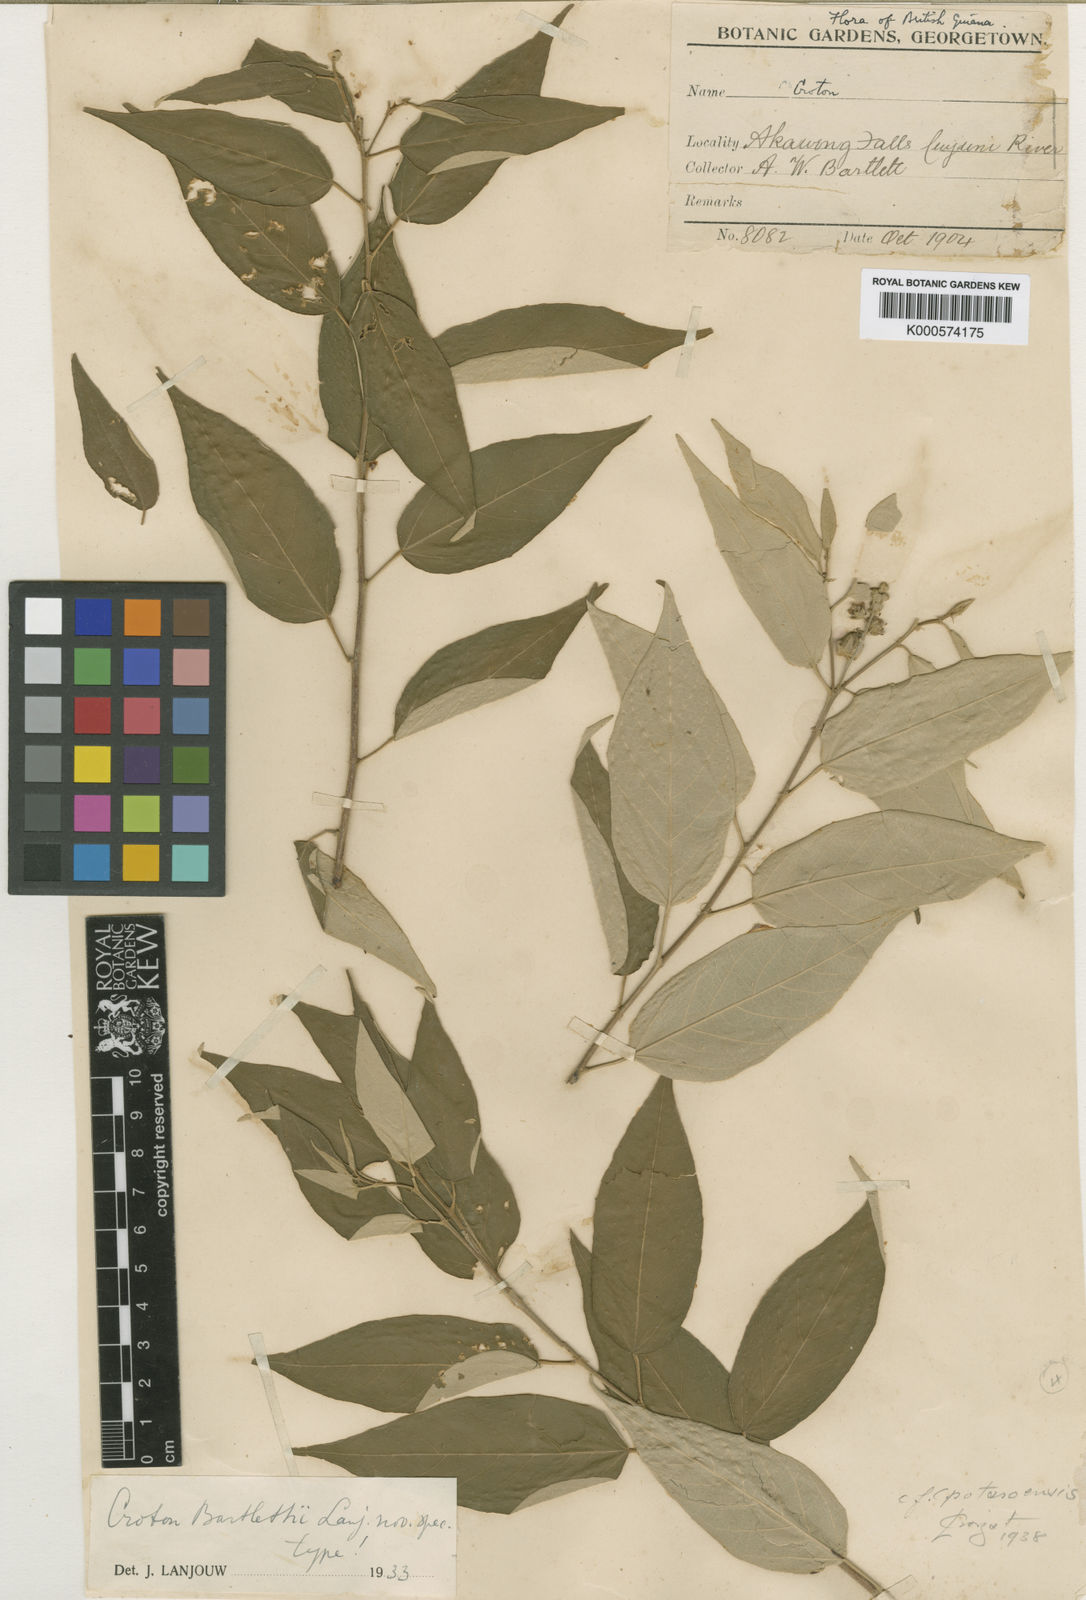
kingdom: Plantae
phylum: Tracheophyta
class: Magnoliopsida
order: Malpighiales
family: Euphorbiaceae
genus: Croton
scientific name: Croton potaroensis
